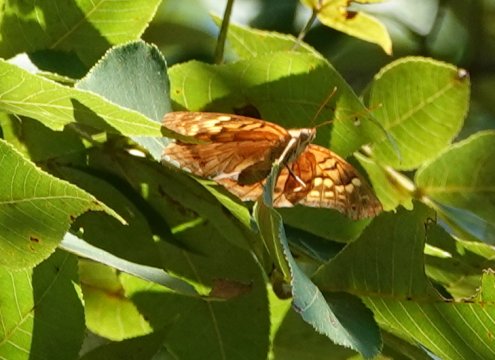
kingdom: Animalia
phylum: Arthropoda
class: Insecta
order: Lepidoptera
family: Nymphalidae
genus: Asterocampa
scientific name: Asterocampa clyton
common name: Tawny Emperor
